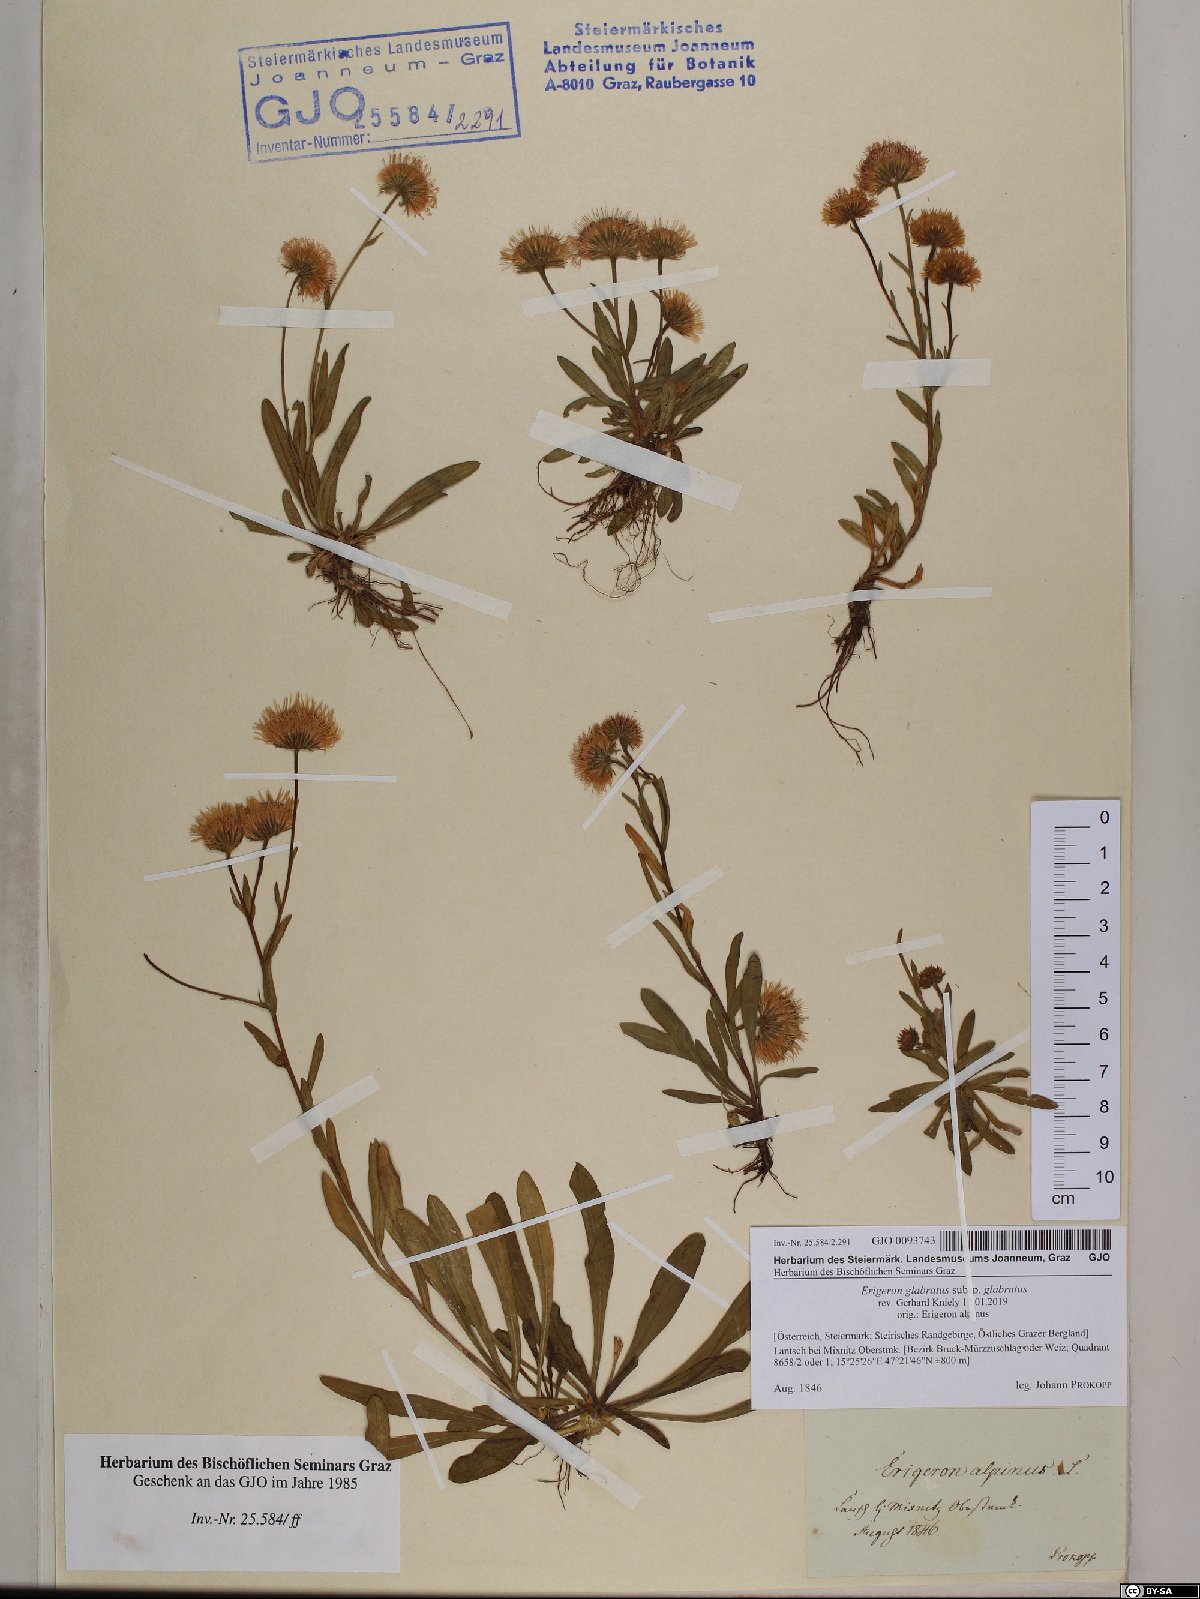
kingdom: Plantae
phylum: Tracheophyta
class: Magnoliopsida
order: Asterales
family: Asteraceae
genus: Erigeron
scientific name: Erigeron glabratus
